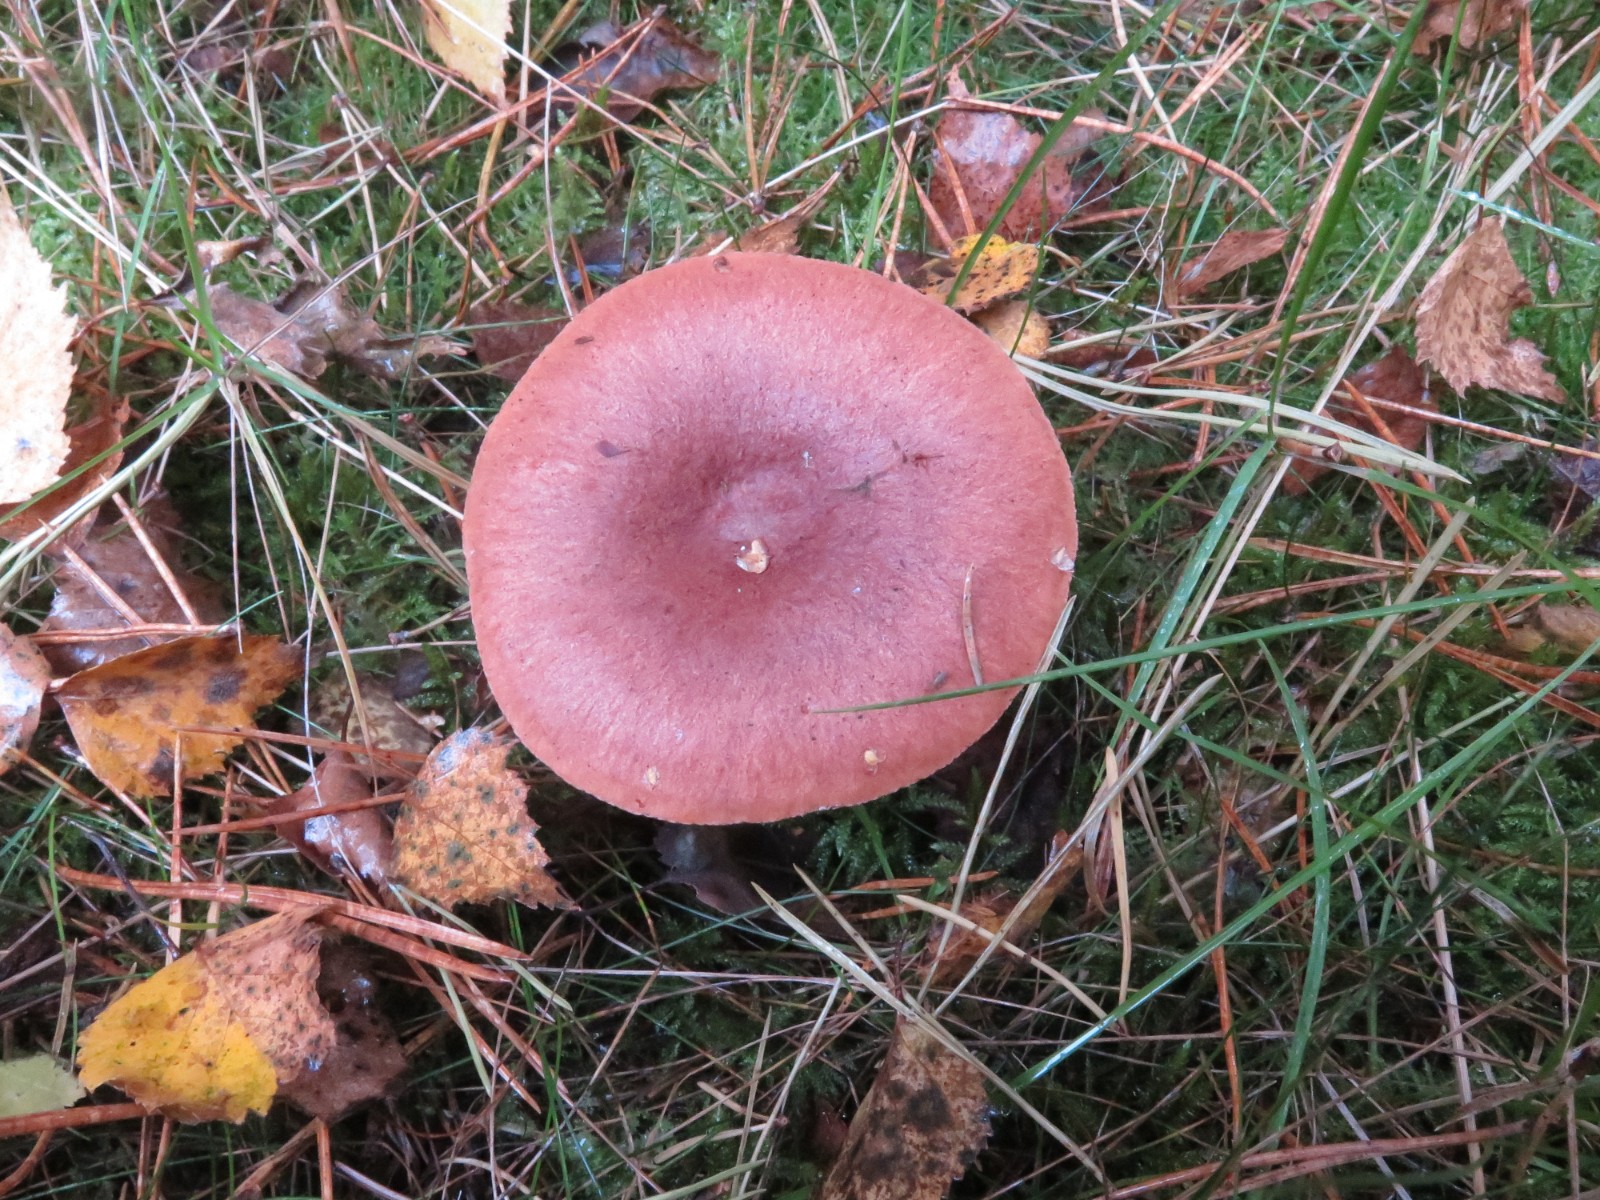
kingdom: Fungi
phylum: Basidiomycota
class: Agaricomycetes
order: Russulales
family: Russulaceae
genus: Lactarius
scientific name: Lactarius rufus
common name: rødbrun mælkehat
